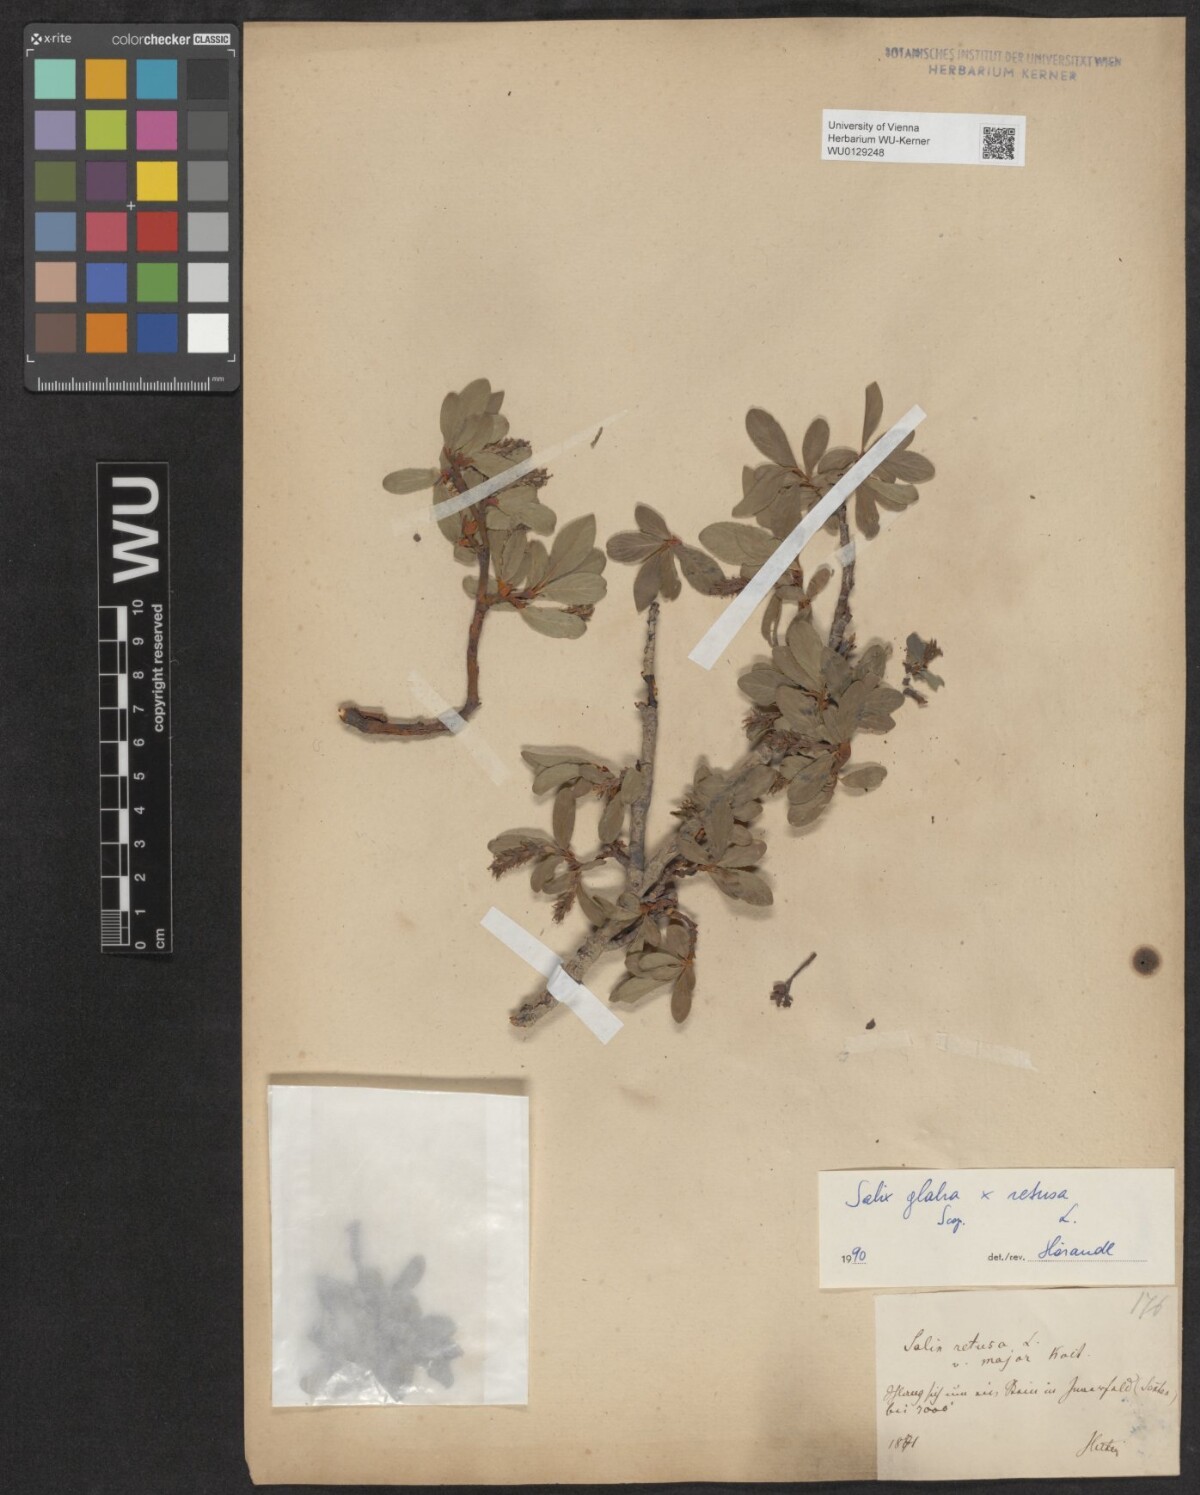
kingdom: Plantae
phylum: Tracheophyta
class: Magnoliopsida
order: Malpighiales
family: Salicaceae
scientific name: Salicaceae
